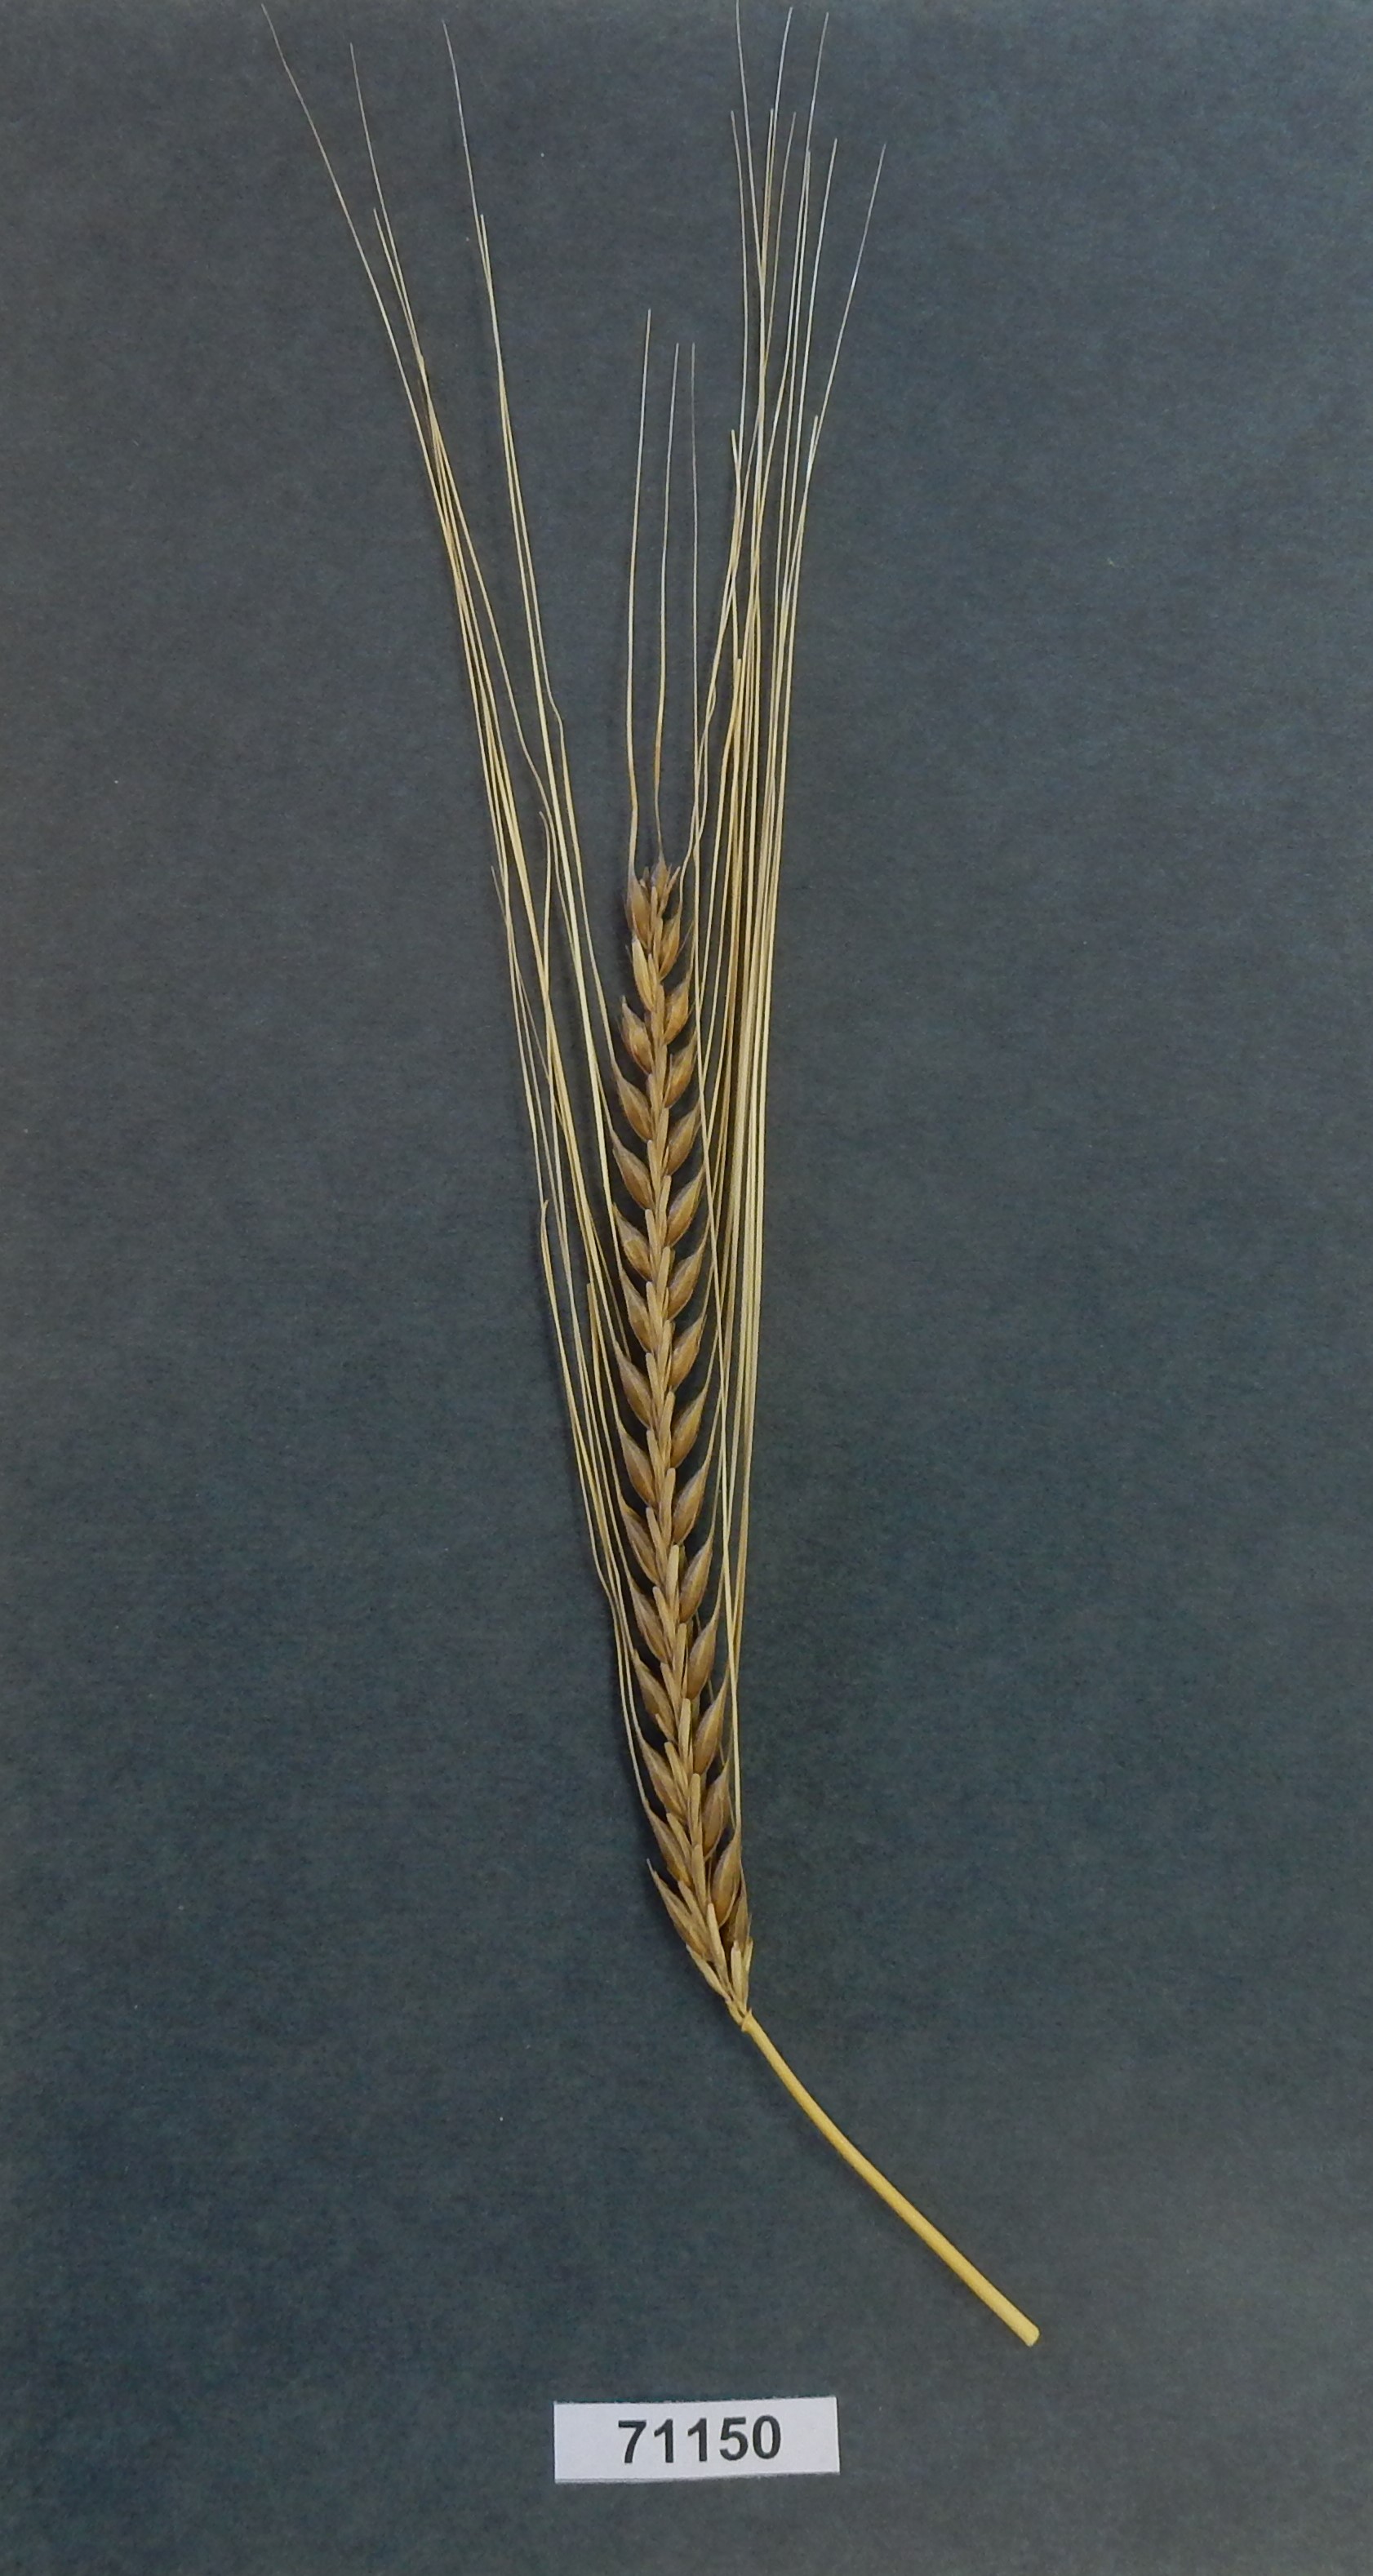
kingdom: Plantae
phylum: Tracheophyta
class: Liliopsida
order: Poales
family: Poaceae
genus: Hordeum
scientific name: Hordeum
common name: Barley
